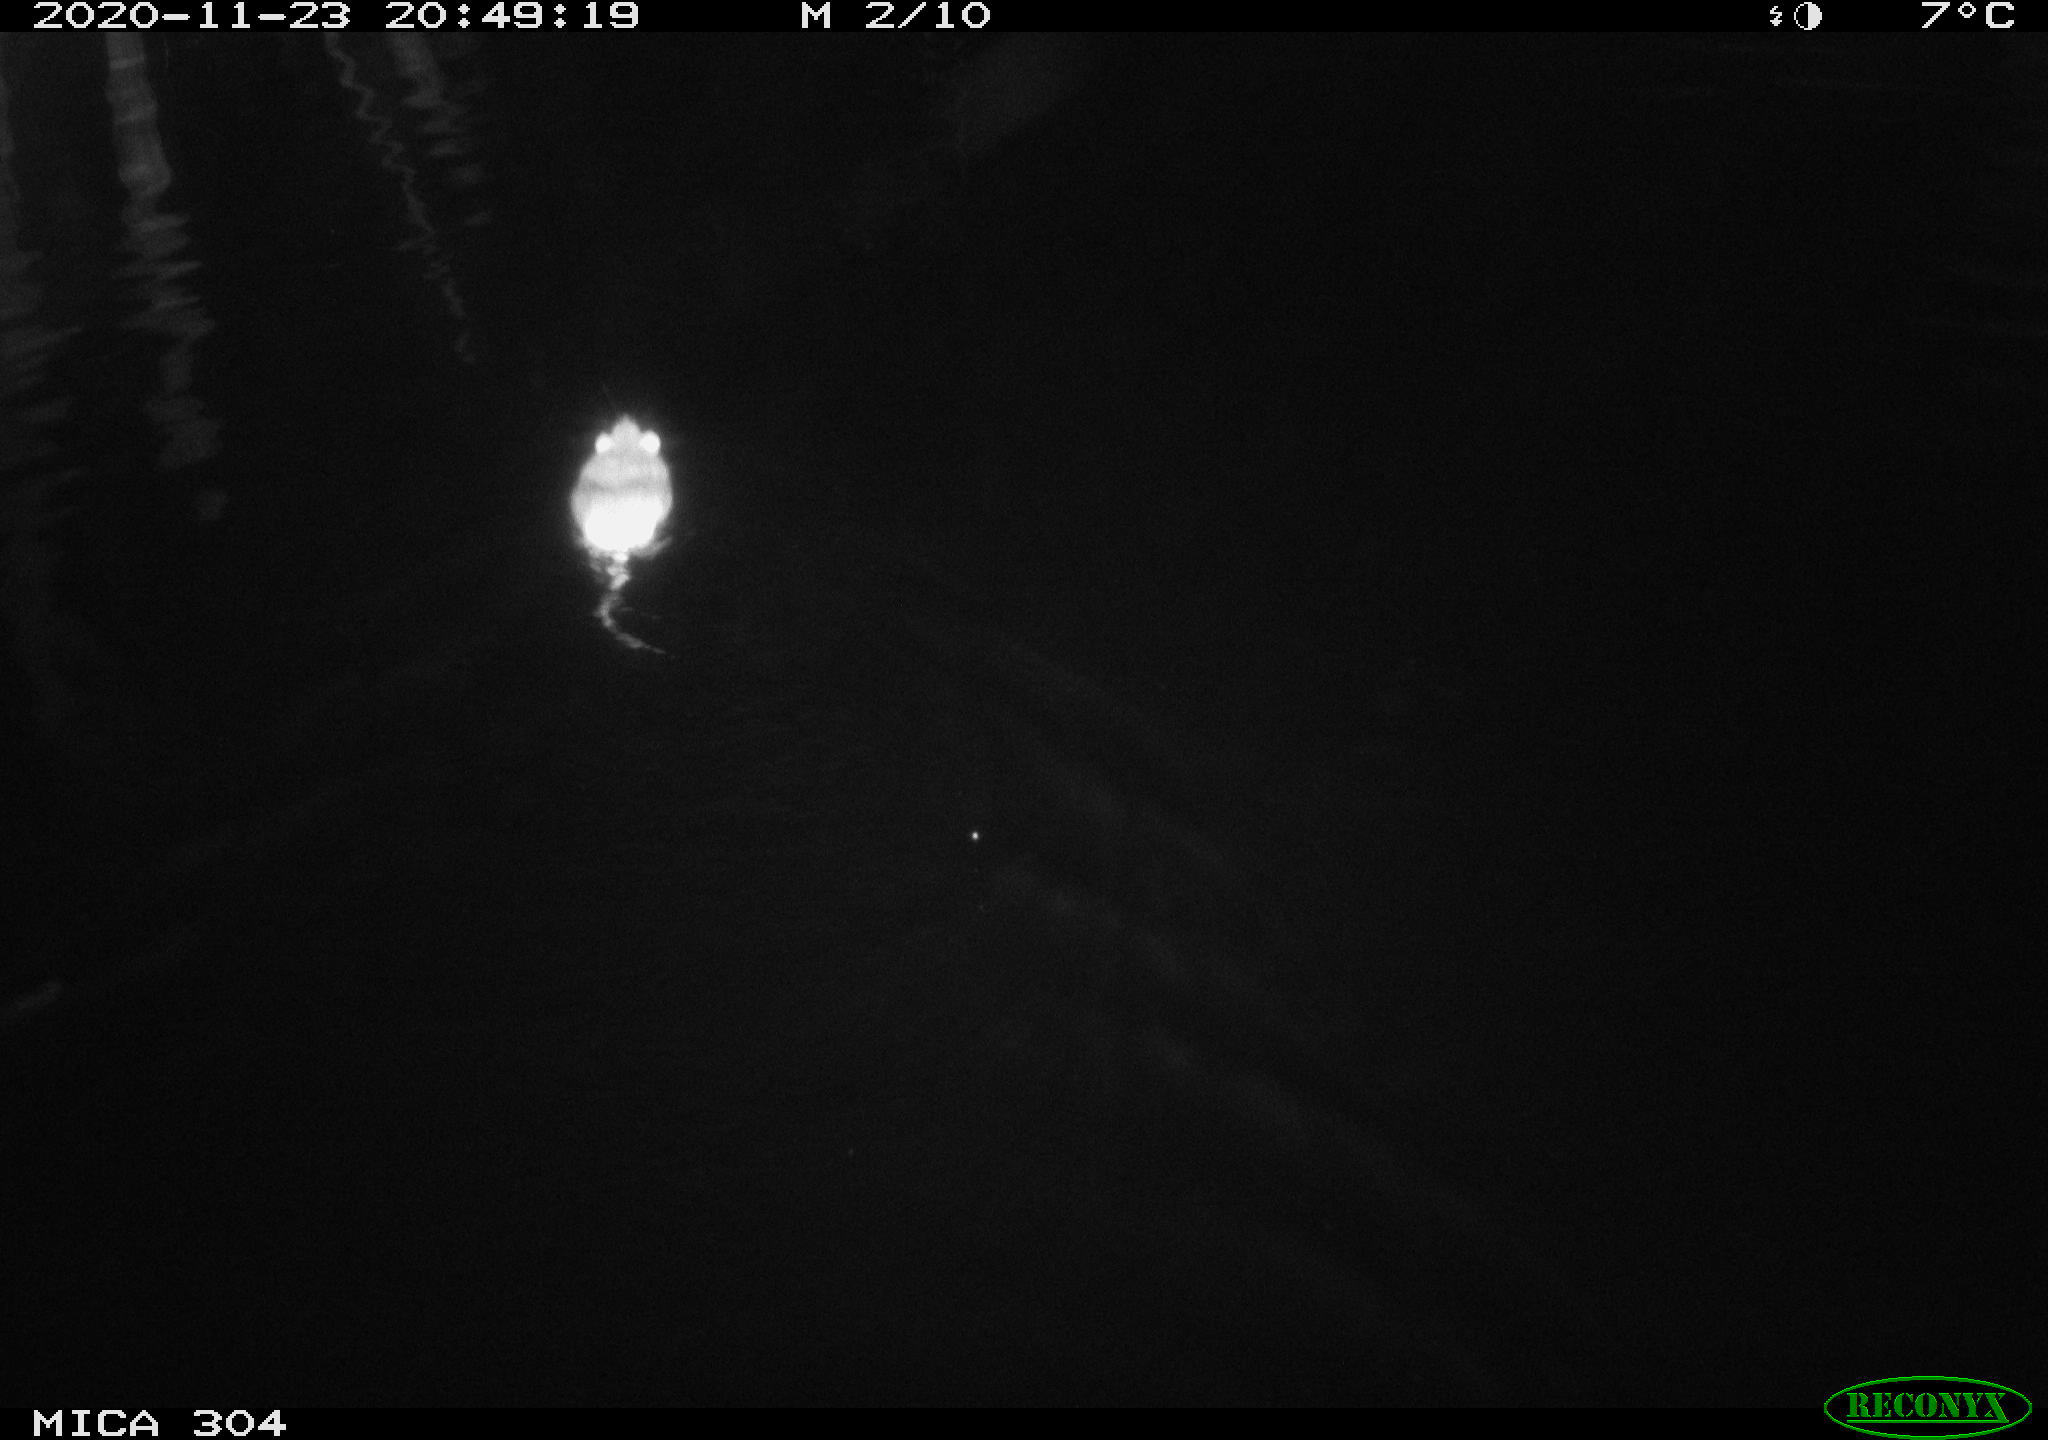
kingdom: Animalia
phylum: Chordata
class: Mammalia
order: Rodentia
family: Muridae
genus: Rattus
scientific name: Rattus norvegicus
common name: Brown rat
